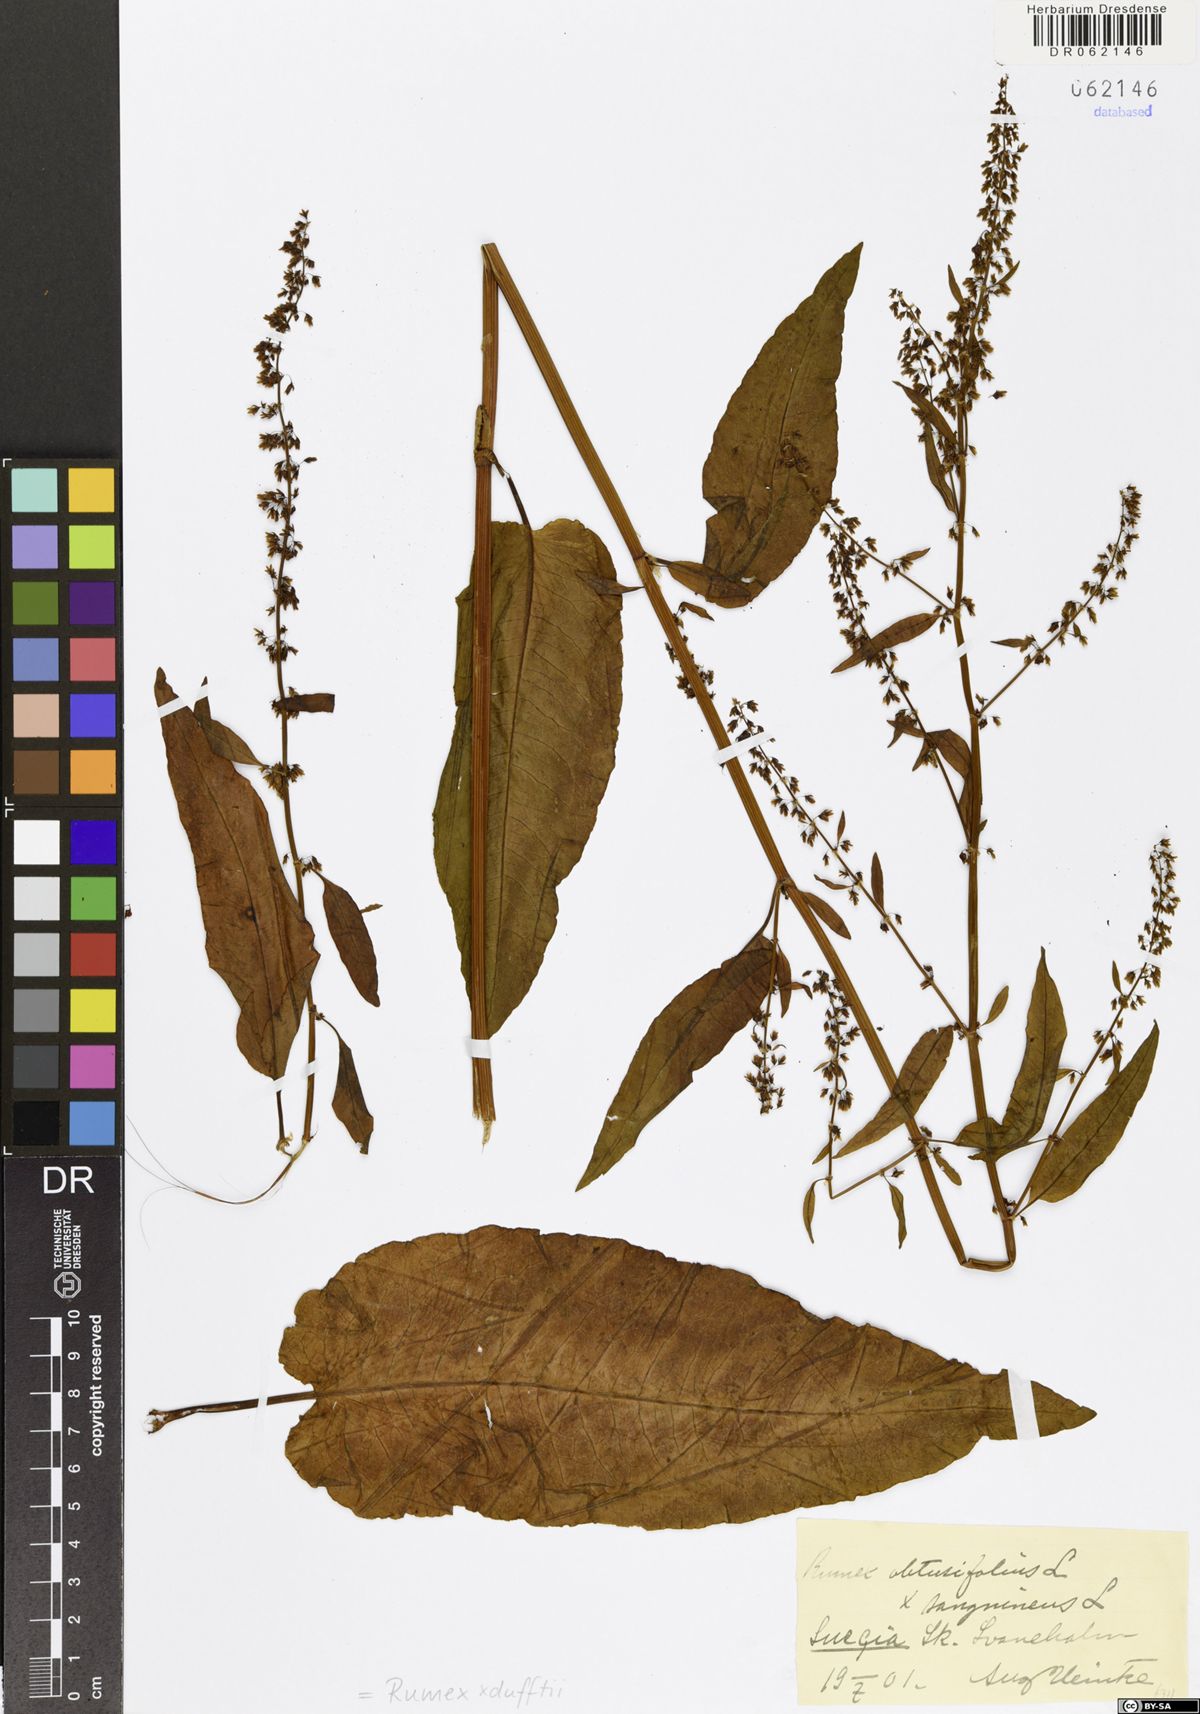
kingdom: Plantae
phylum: Tracheophyta
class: Magnoliopsida
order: Caryophyllales
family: Polygonaceae
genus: Rumex
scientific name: Rumex dufftii
